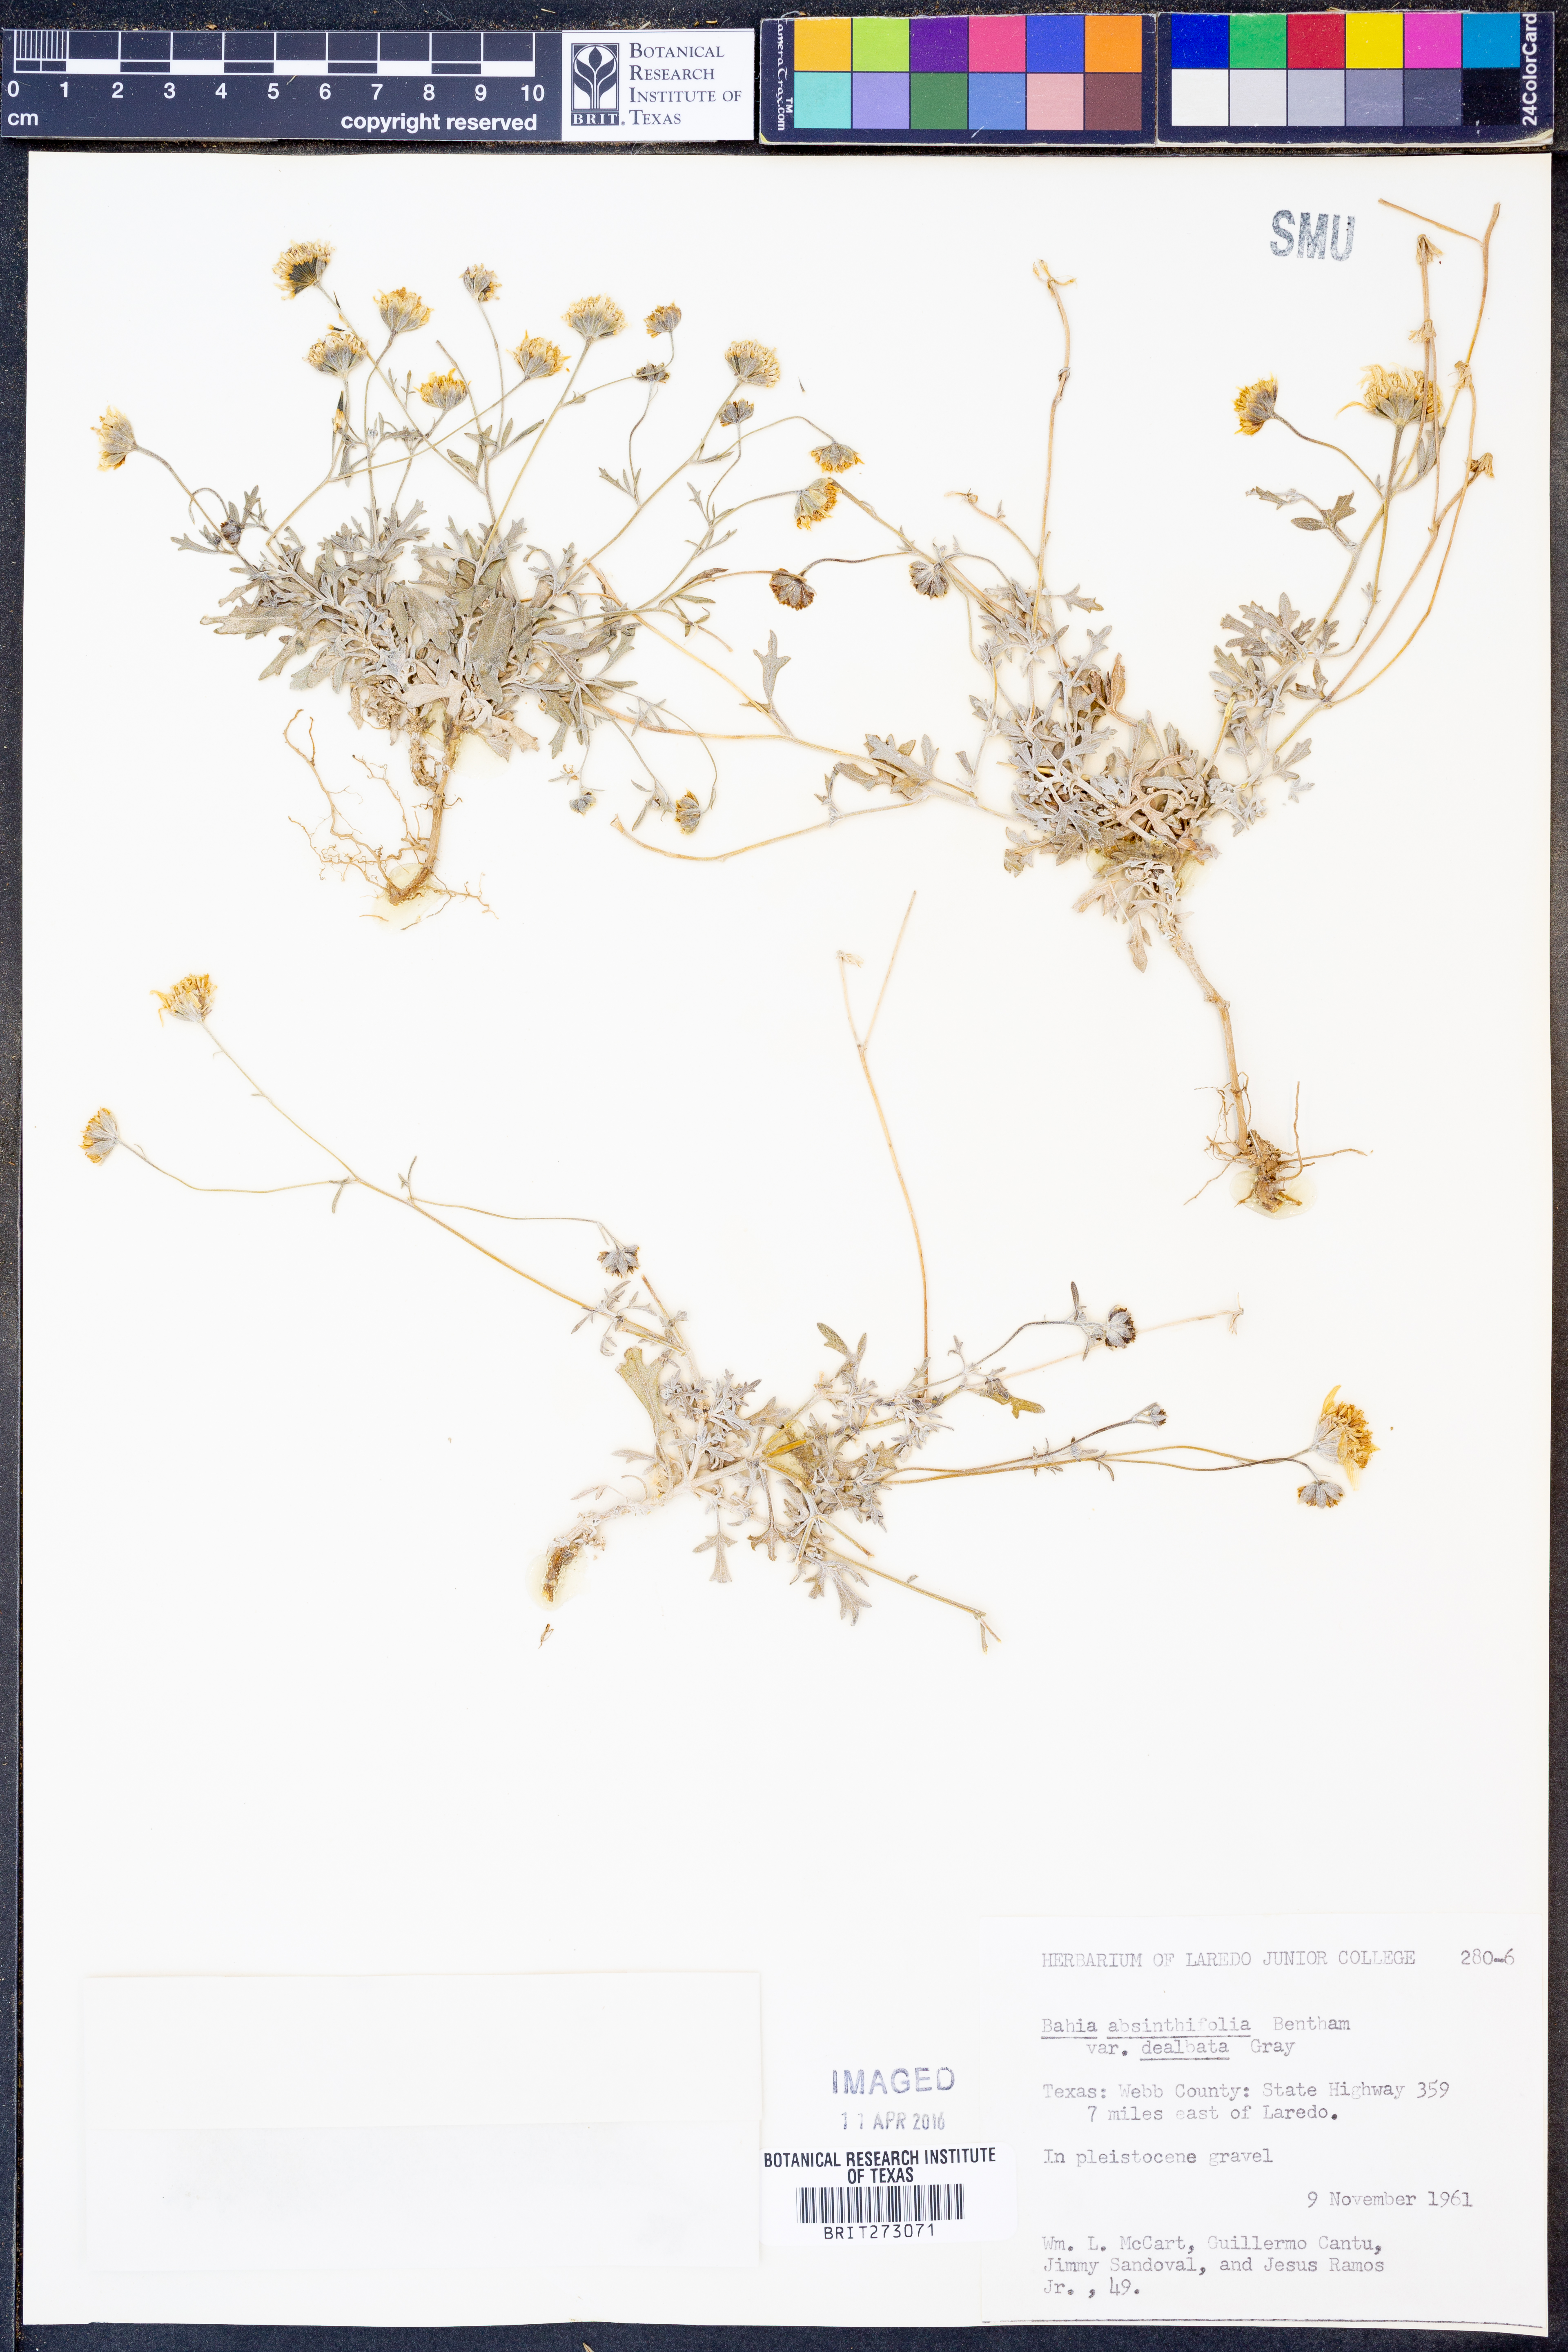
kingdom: Plantae
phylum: Tracheophyta
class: Magnoliopsida
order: Asterales
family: Asteraceae
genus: Picradeniopsis
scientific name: Picradeniopsis absinthifolia
